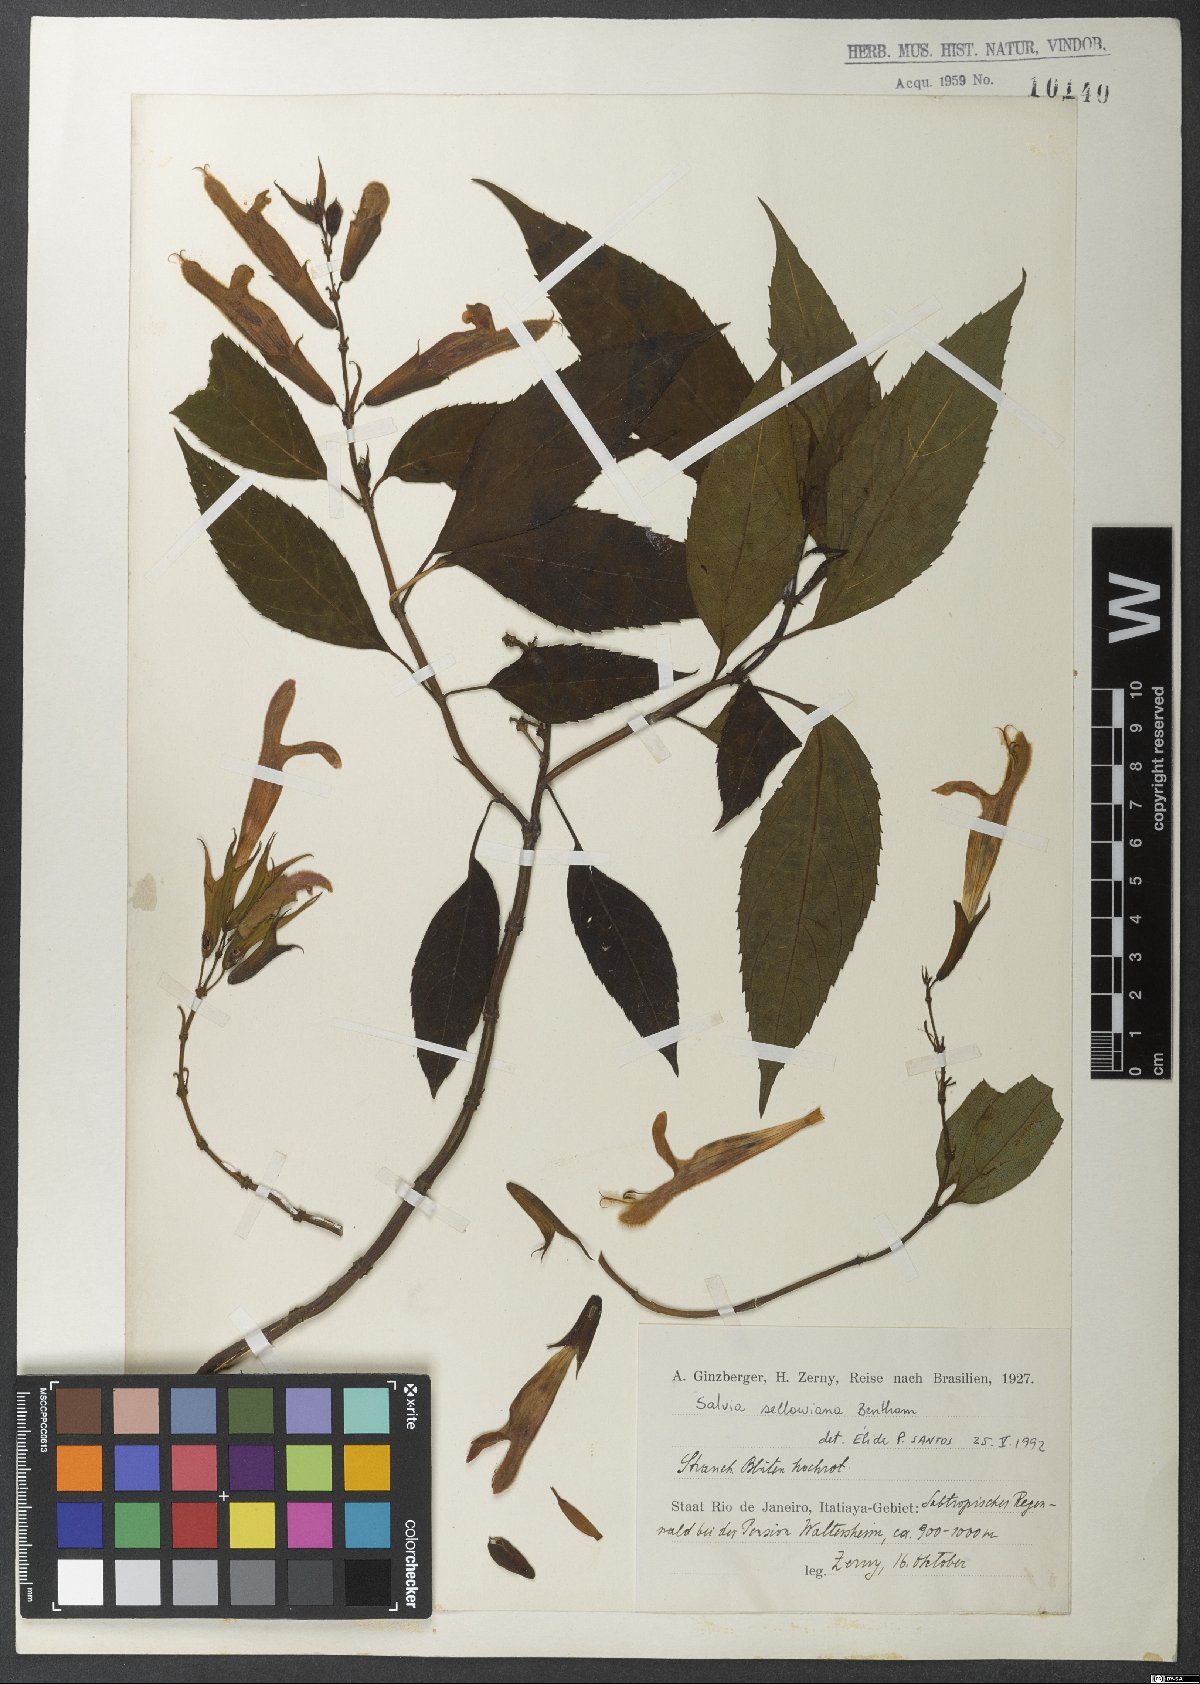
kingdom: Plantae
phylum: Tracheophyta
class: Magnoliopsida
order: Lamiales
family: Lamiaceae
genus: Salvia
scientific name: Salvia sellowiana
